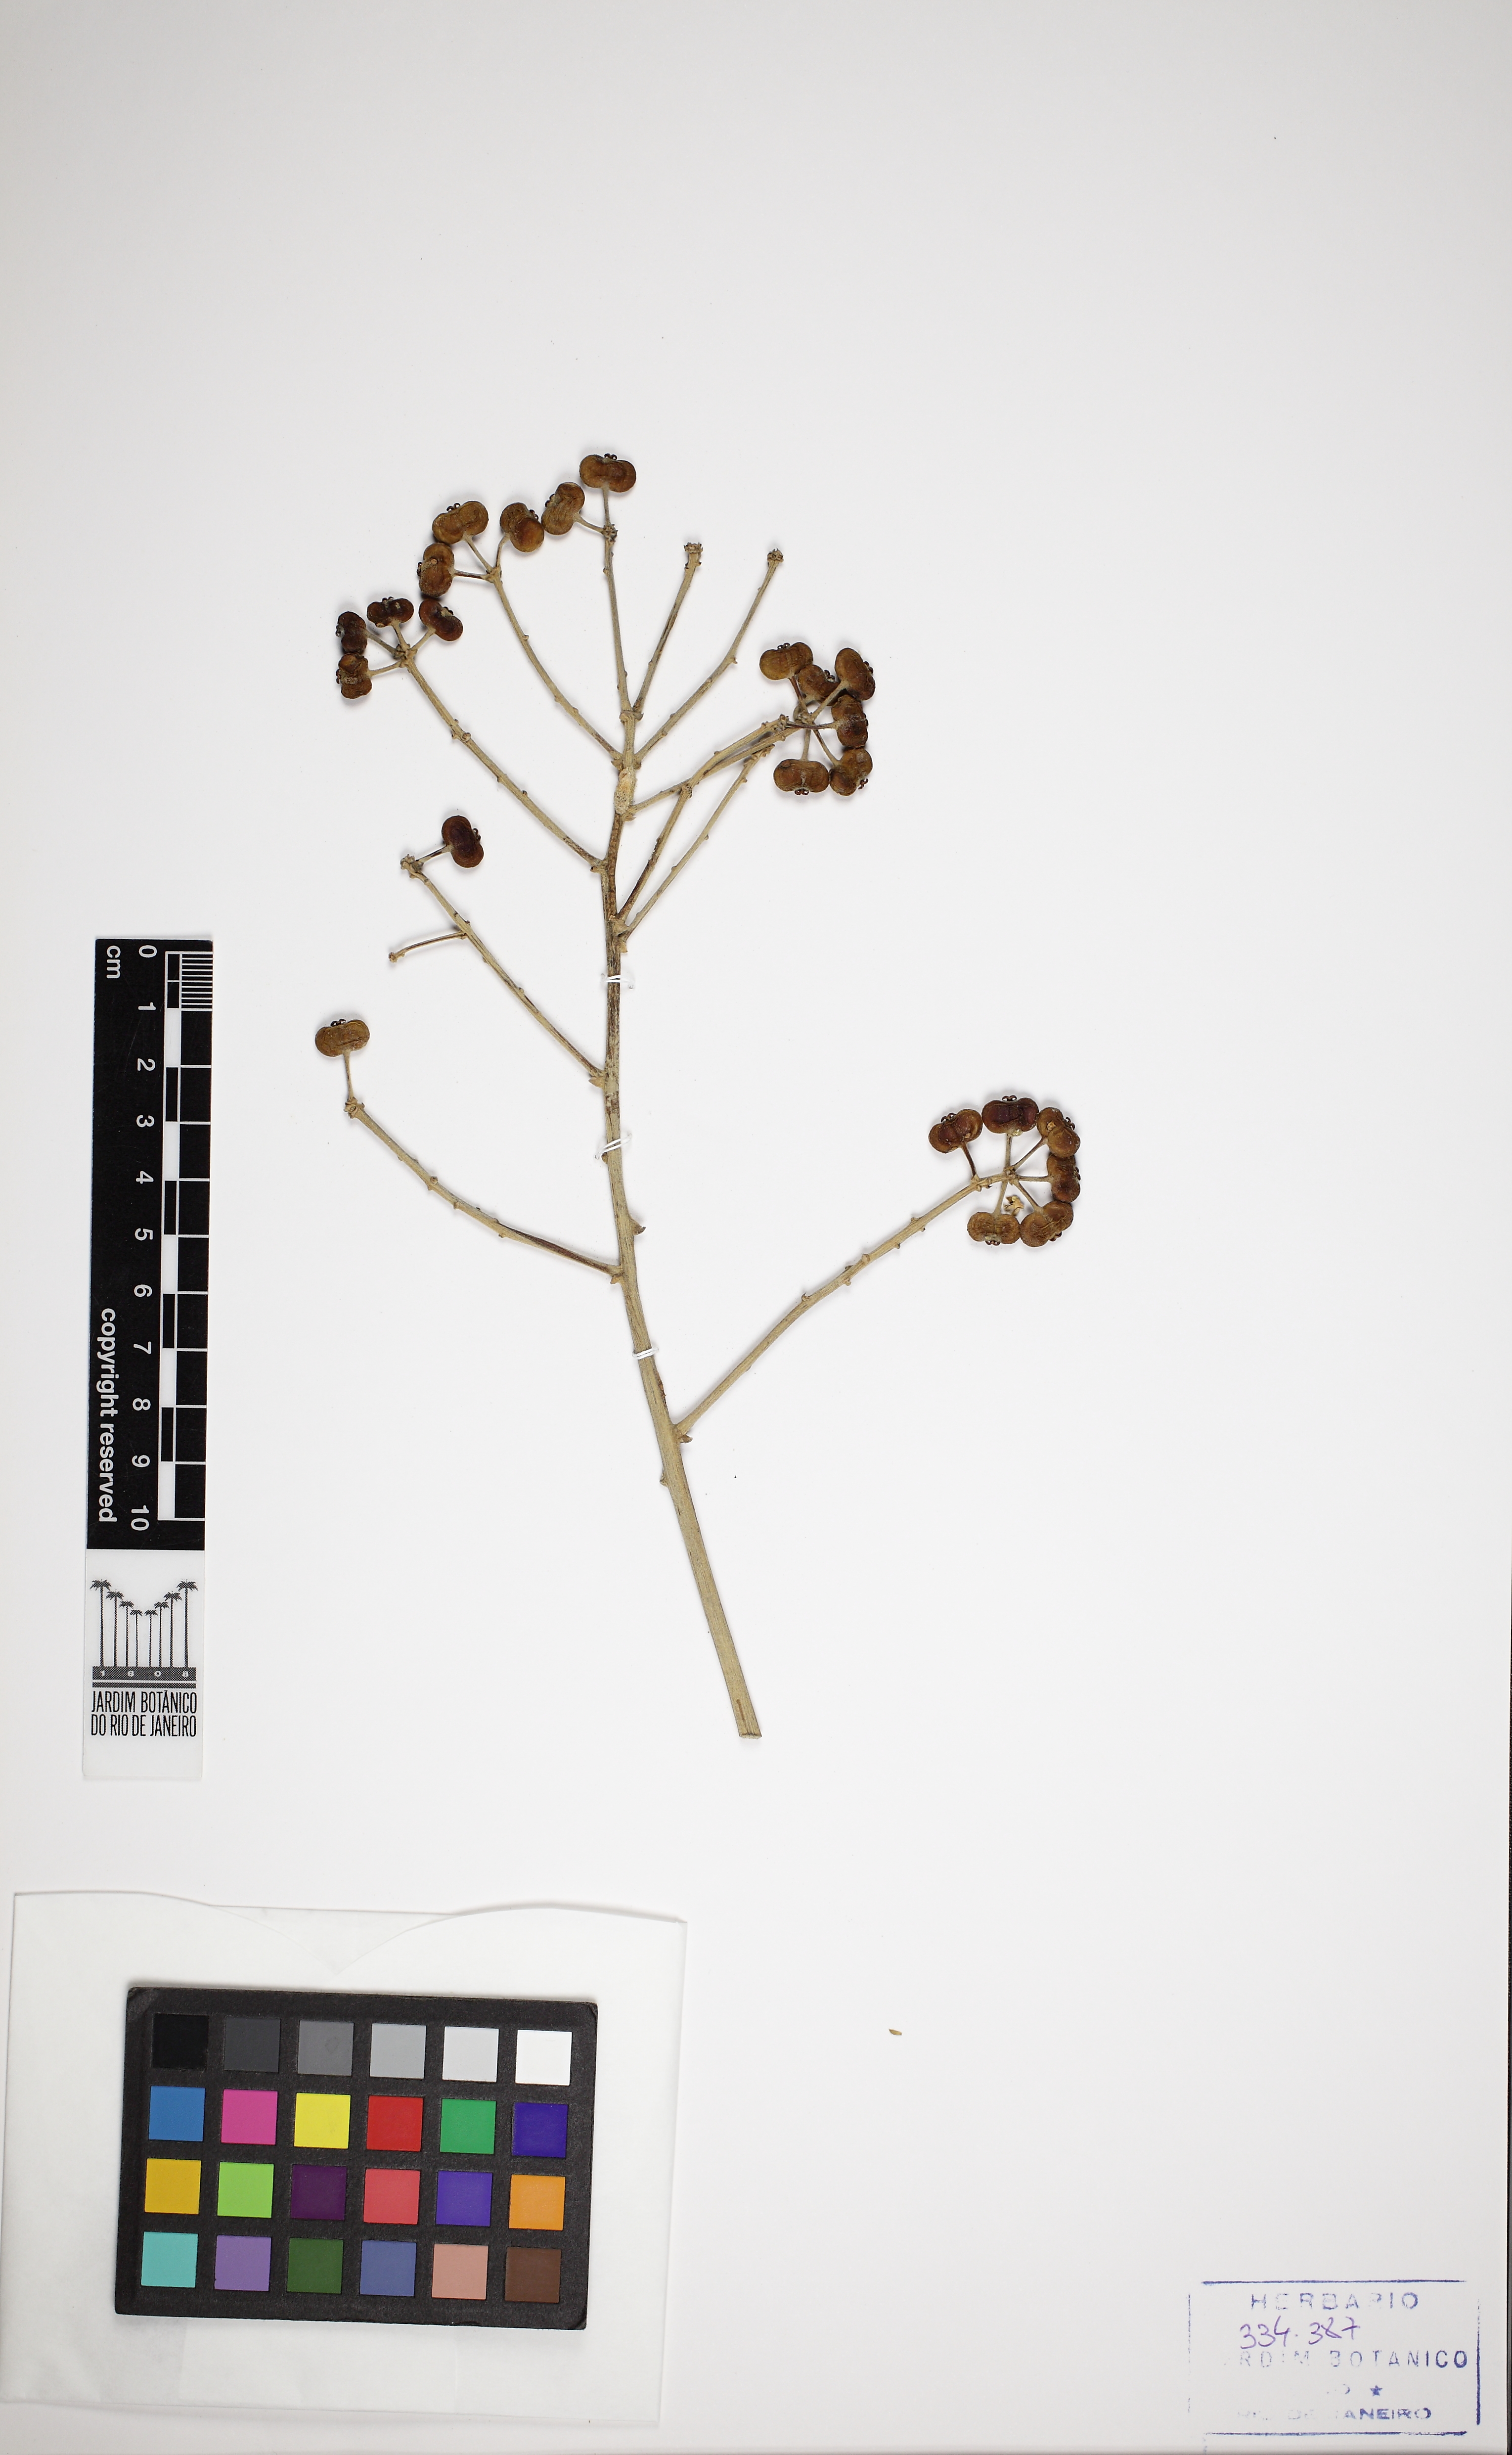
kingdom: Plantae
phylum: Tracheophyta
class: Magnoliopsida
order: Apiales
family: Araliaceae
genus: Didymopanax
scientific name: Didymopanax macrocarpus
